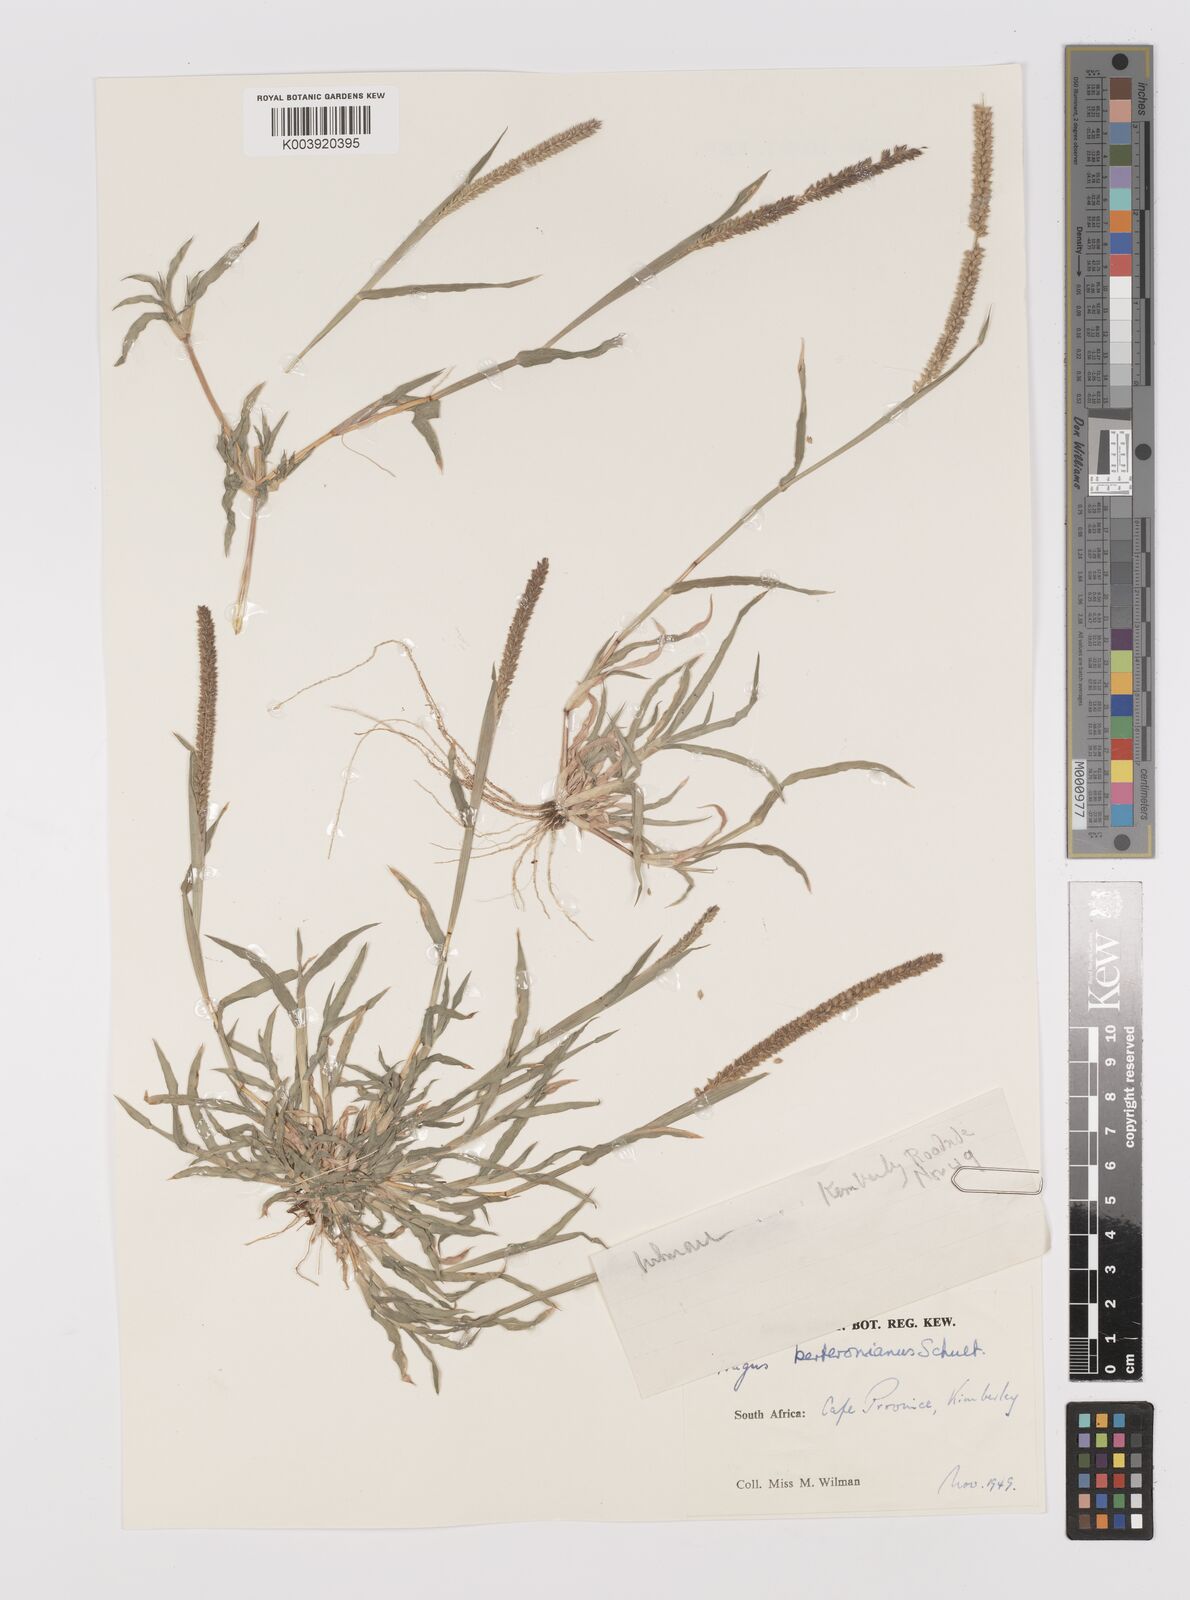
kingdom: Plantae
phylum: Tracheophyta
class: Liliopsida
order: Poales
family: Poaceae
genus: Tragus
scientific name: Tragus berteronianus
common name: African bur-grass
